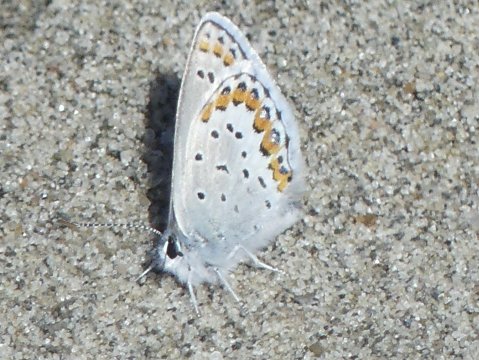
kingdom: Animalia
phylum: Arthropoda
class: Insecta
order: Lepidoptera
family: Lycaenidae
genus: Lycaeides
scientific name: Lycaeides melissa
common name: Melissa Blue
